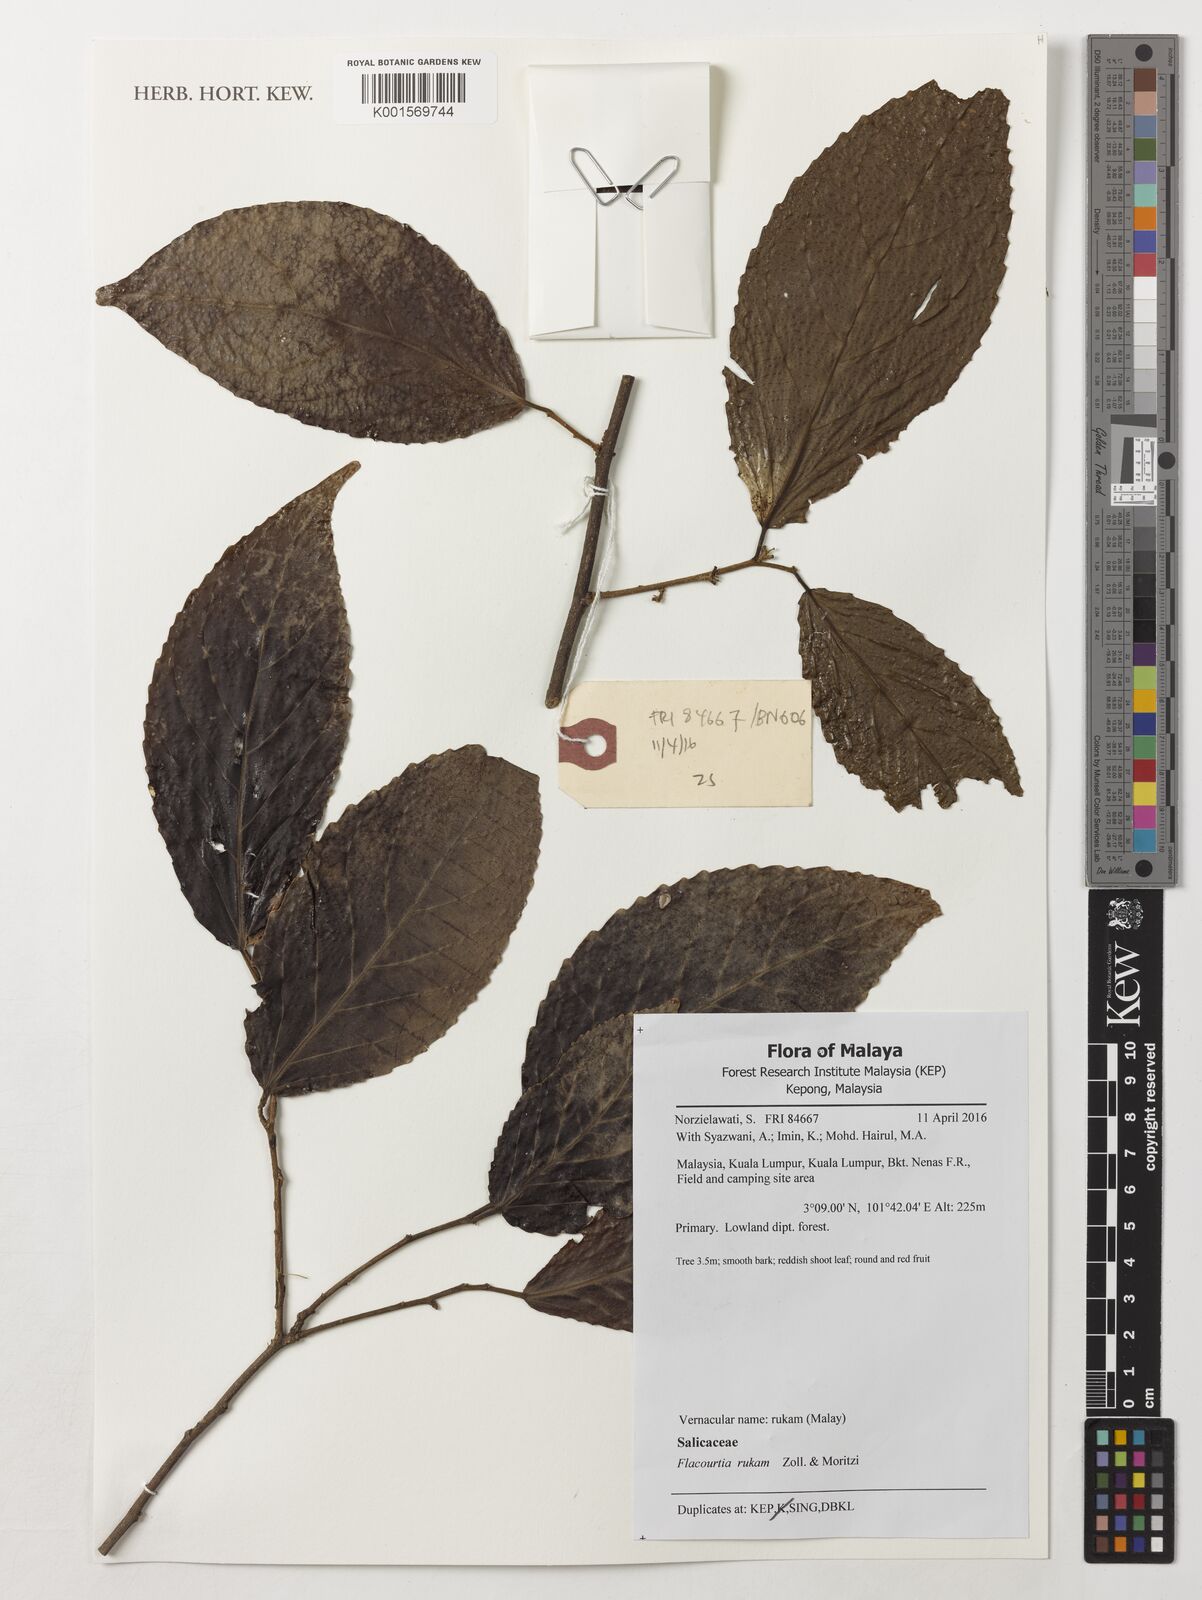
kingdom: Plantae
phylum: Tracheophyta
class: Magnoliopsida
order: Malpighiales
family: Salicaceae
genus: Flacourtia
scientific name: Flacourtia rukam
